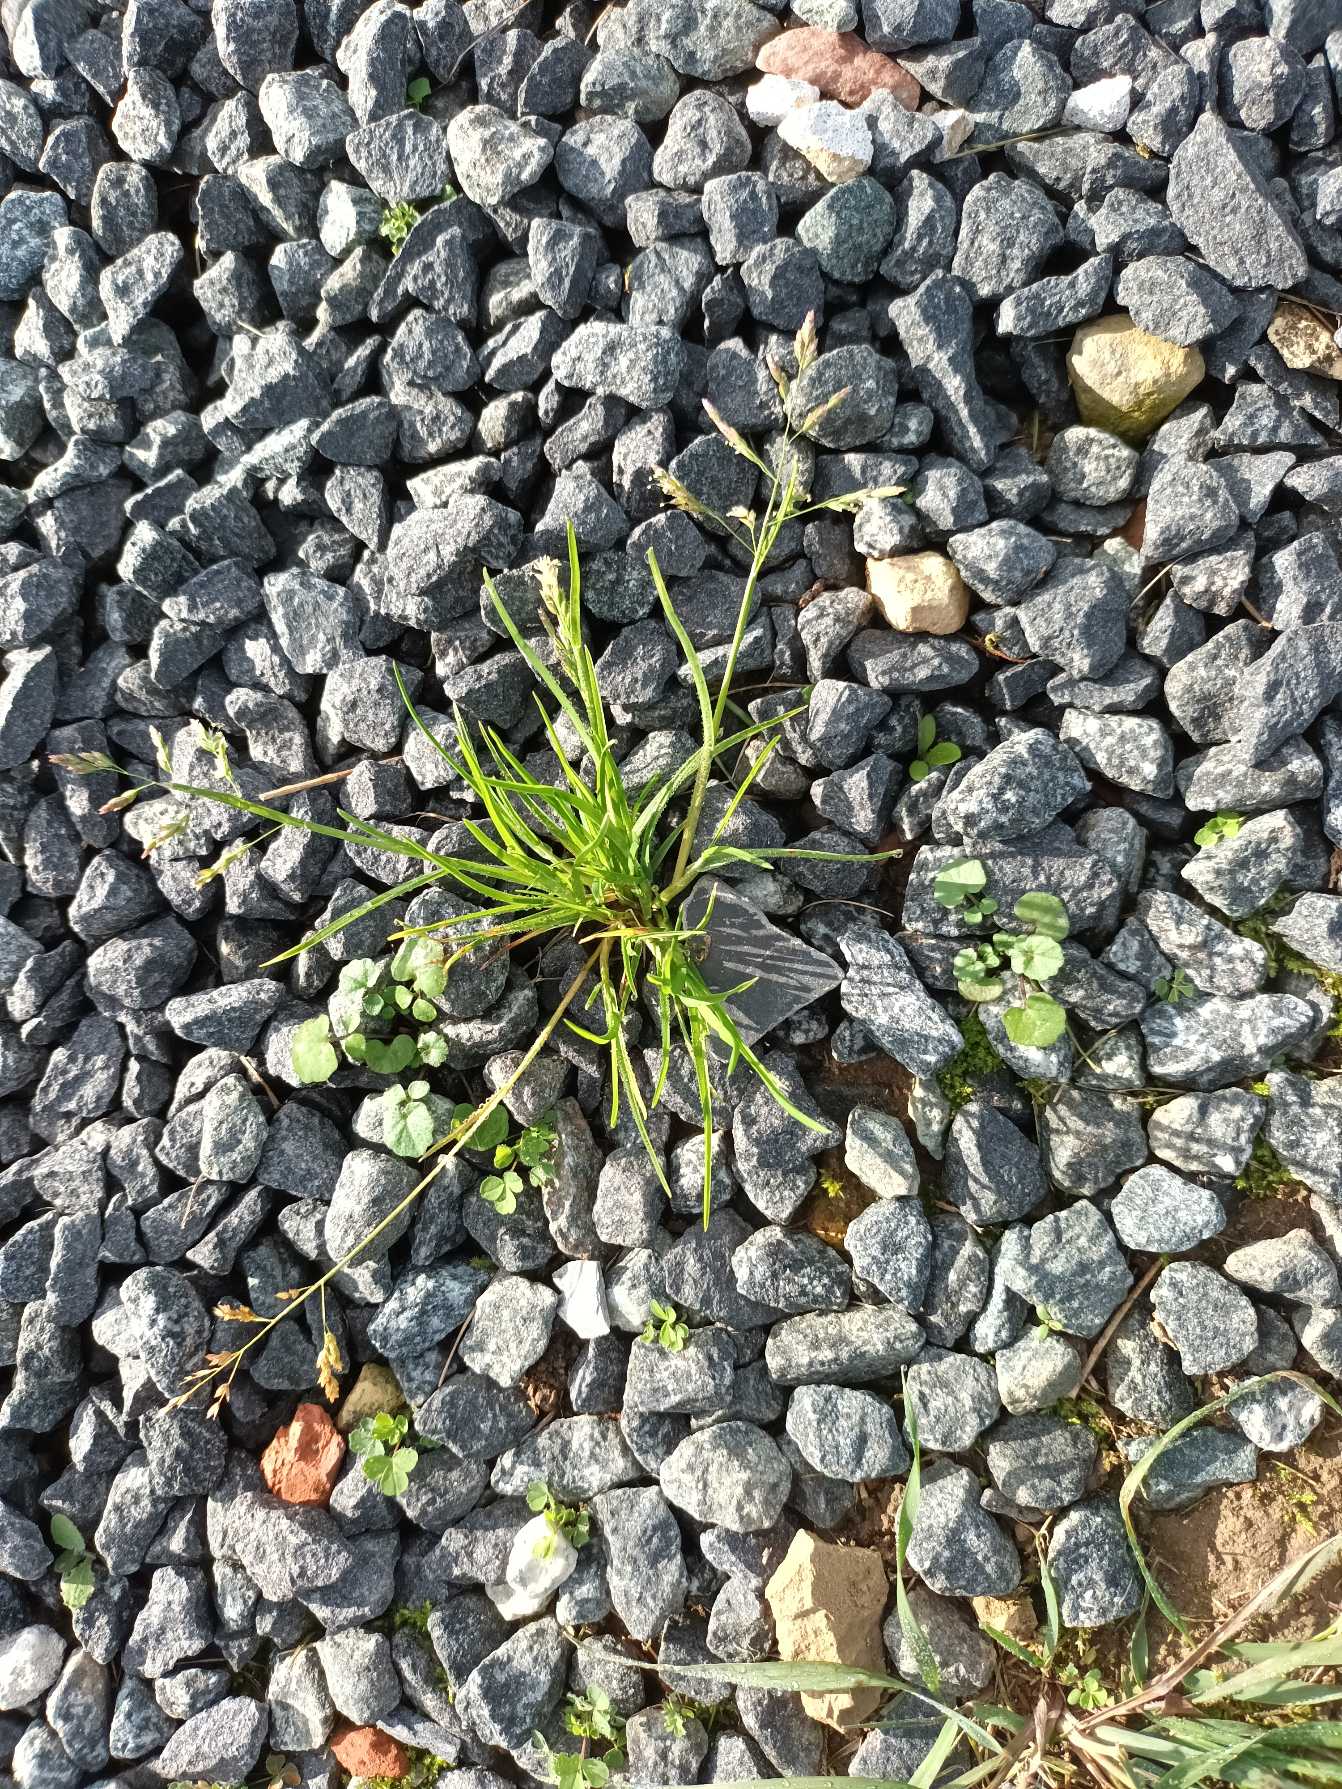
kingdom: Plantae
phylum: Tracheophyta
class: Liliopsida
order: Poales
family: Poaceae
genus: Poa
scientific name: Poa annua
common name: Enårig rapgræs
